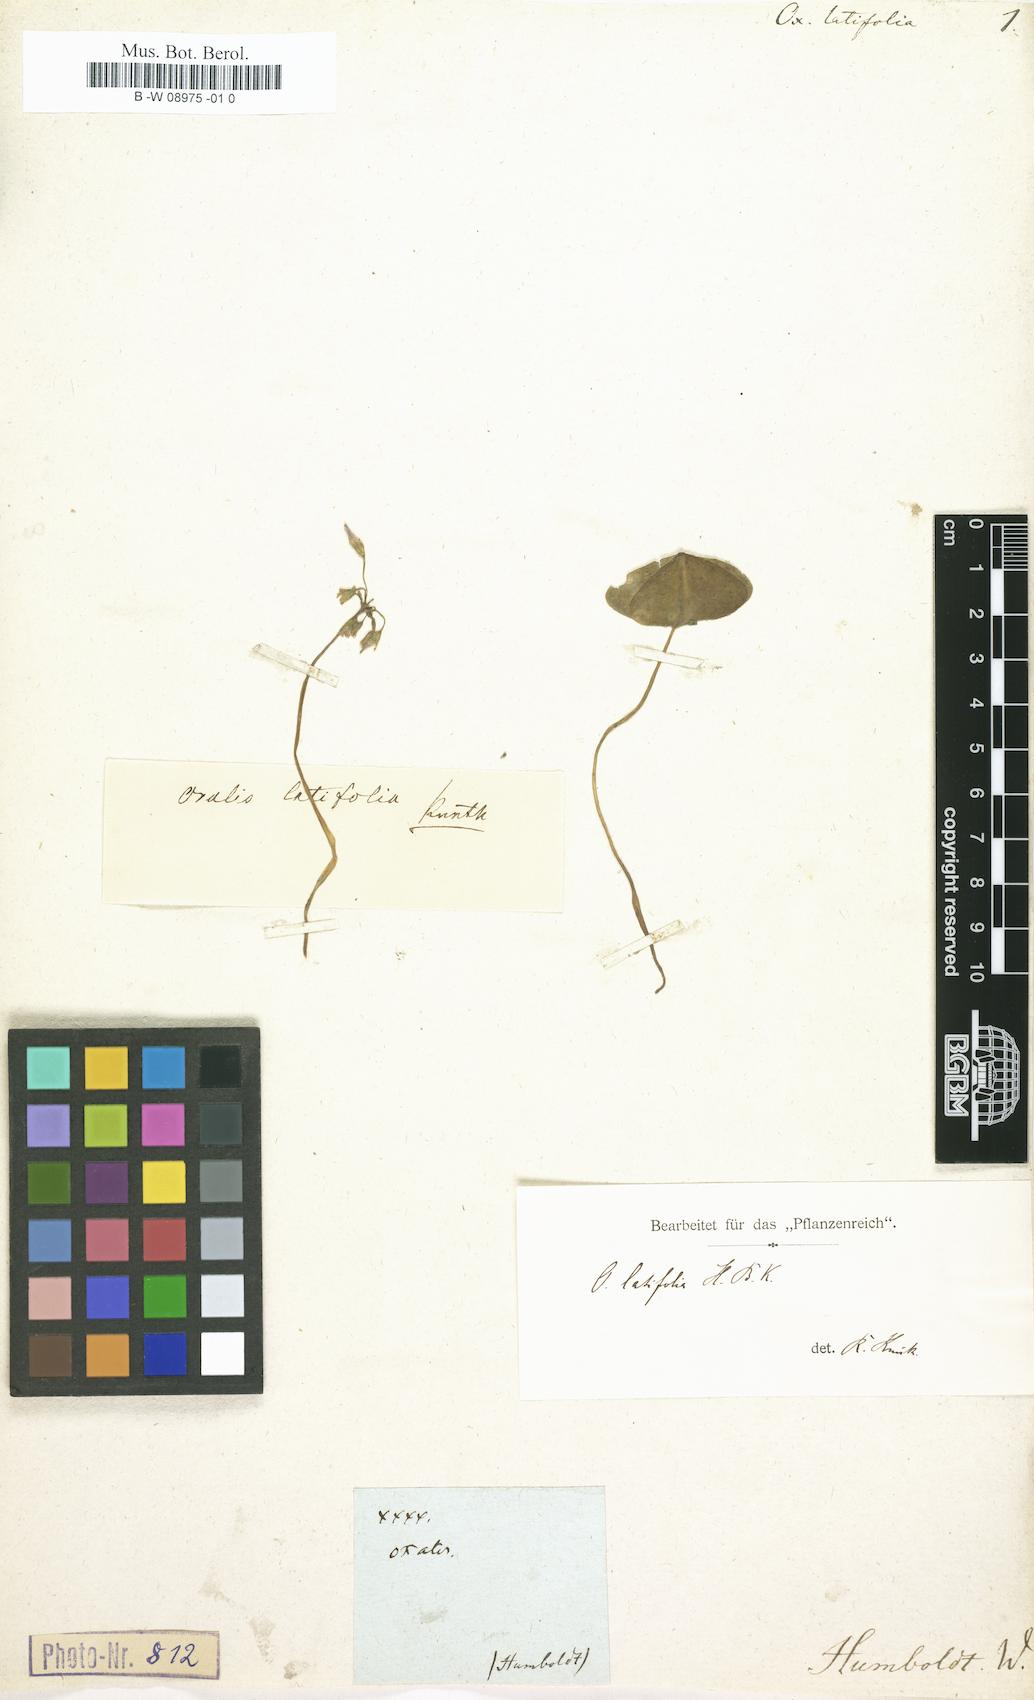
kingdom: Plantae
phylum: Tracheophyta
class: Magnoliopsida
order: Oxalidales
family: Oxalidaceae
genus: Oxalis
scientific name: Oxalis latifolia
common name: Garden pink-sorrel
